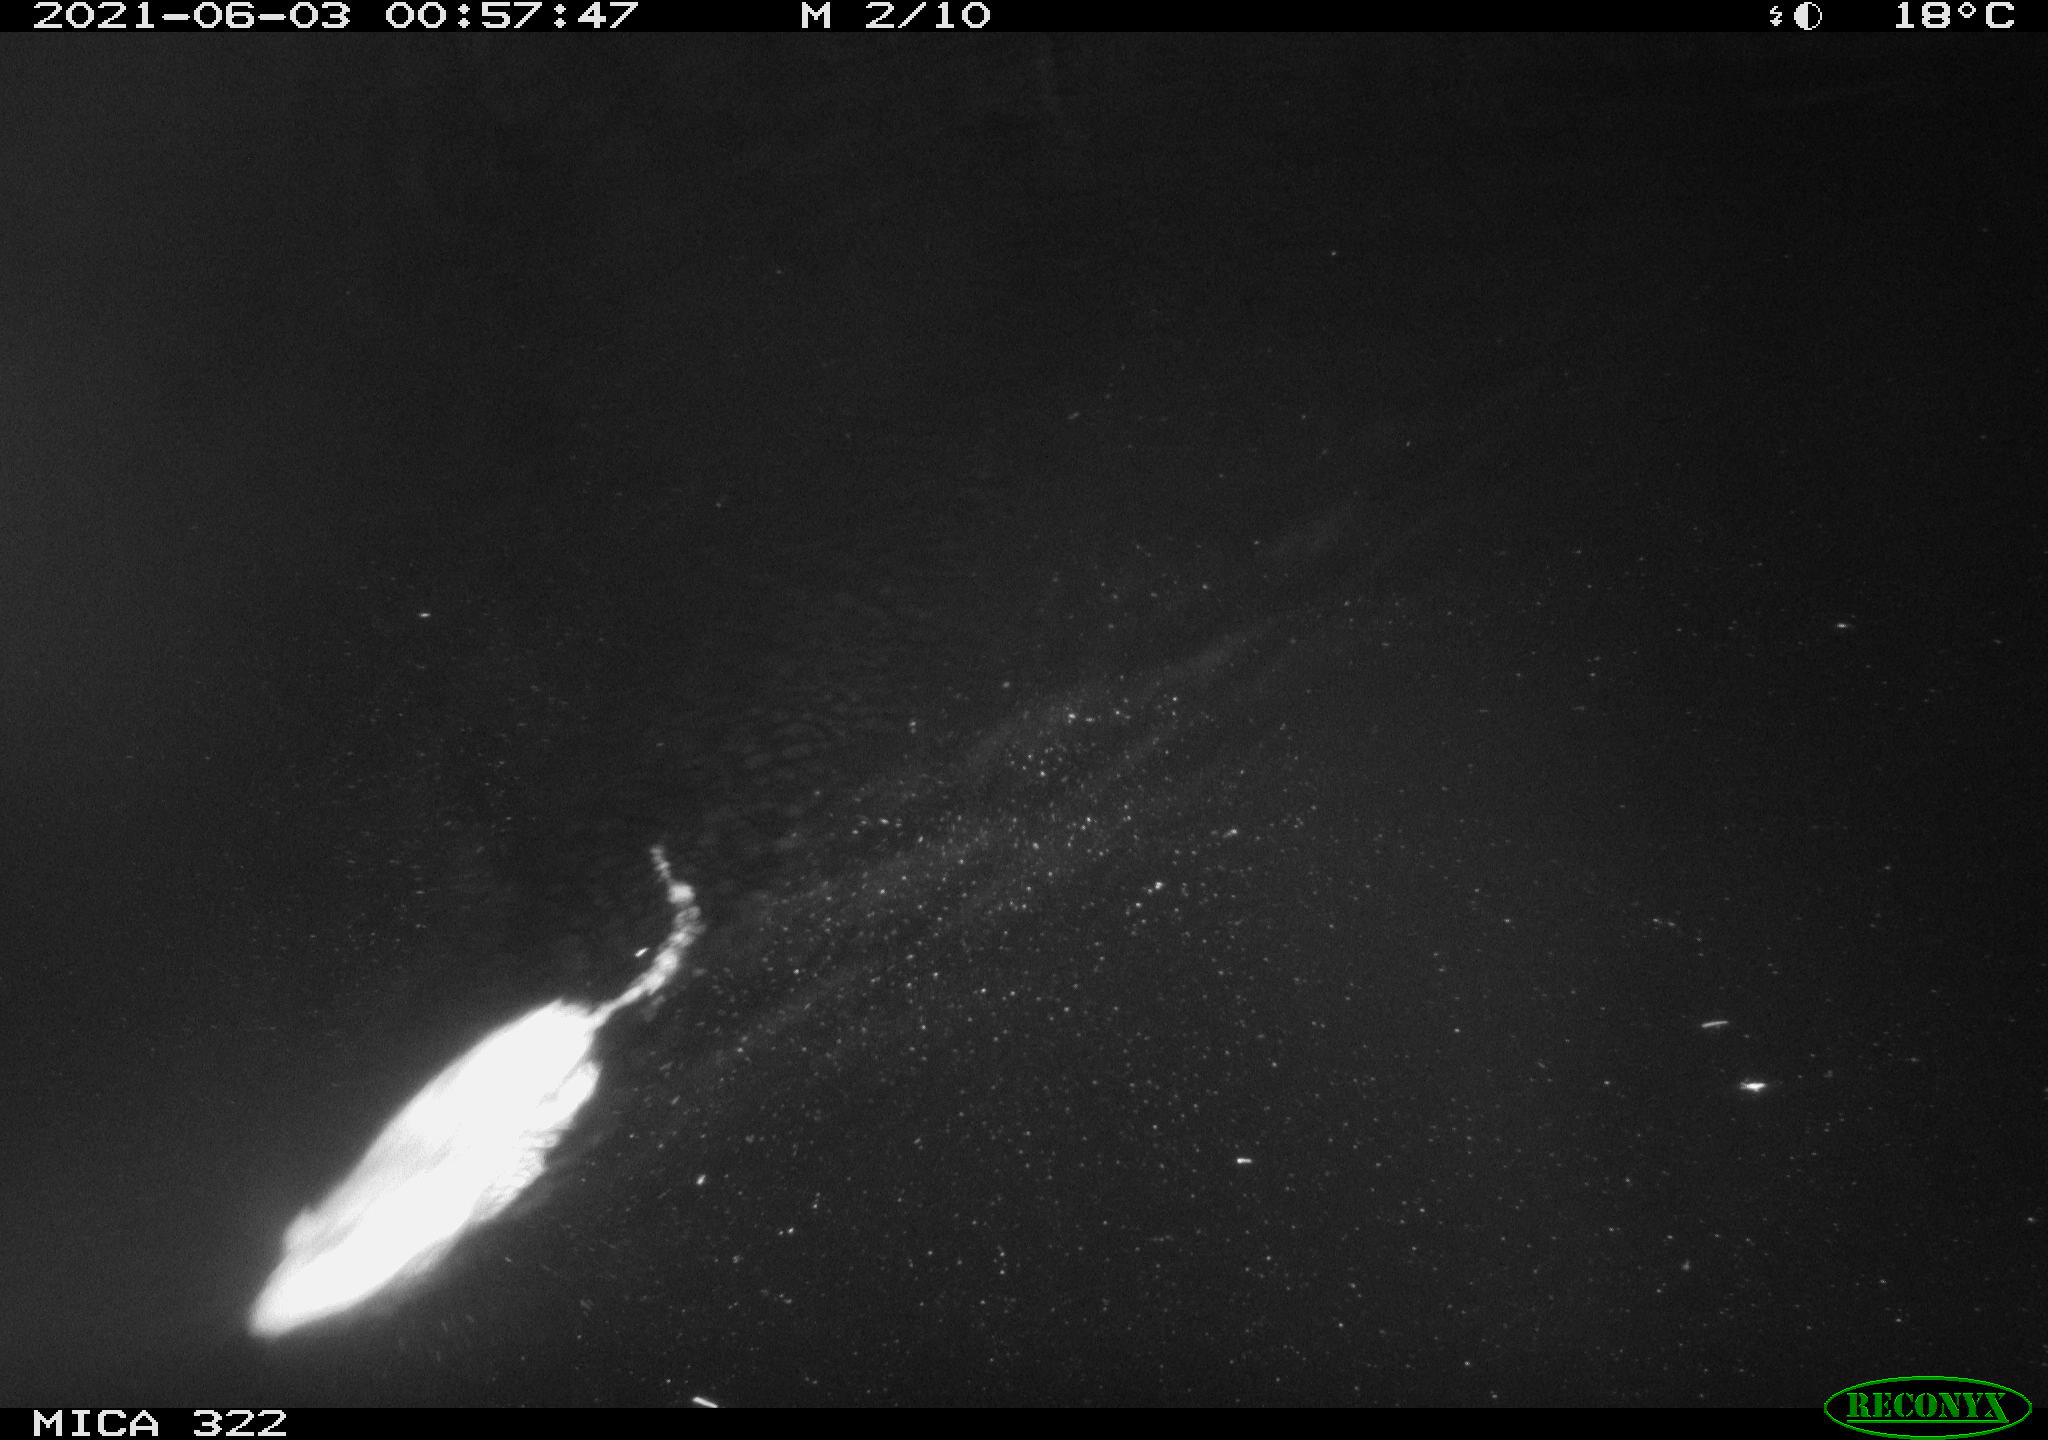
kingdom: Animalia
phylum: Chordata
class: Mammalia
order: Rodentia
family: Muridae
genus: Rattus
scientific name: Rattus norvegicus
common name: Brown rat
